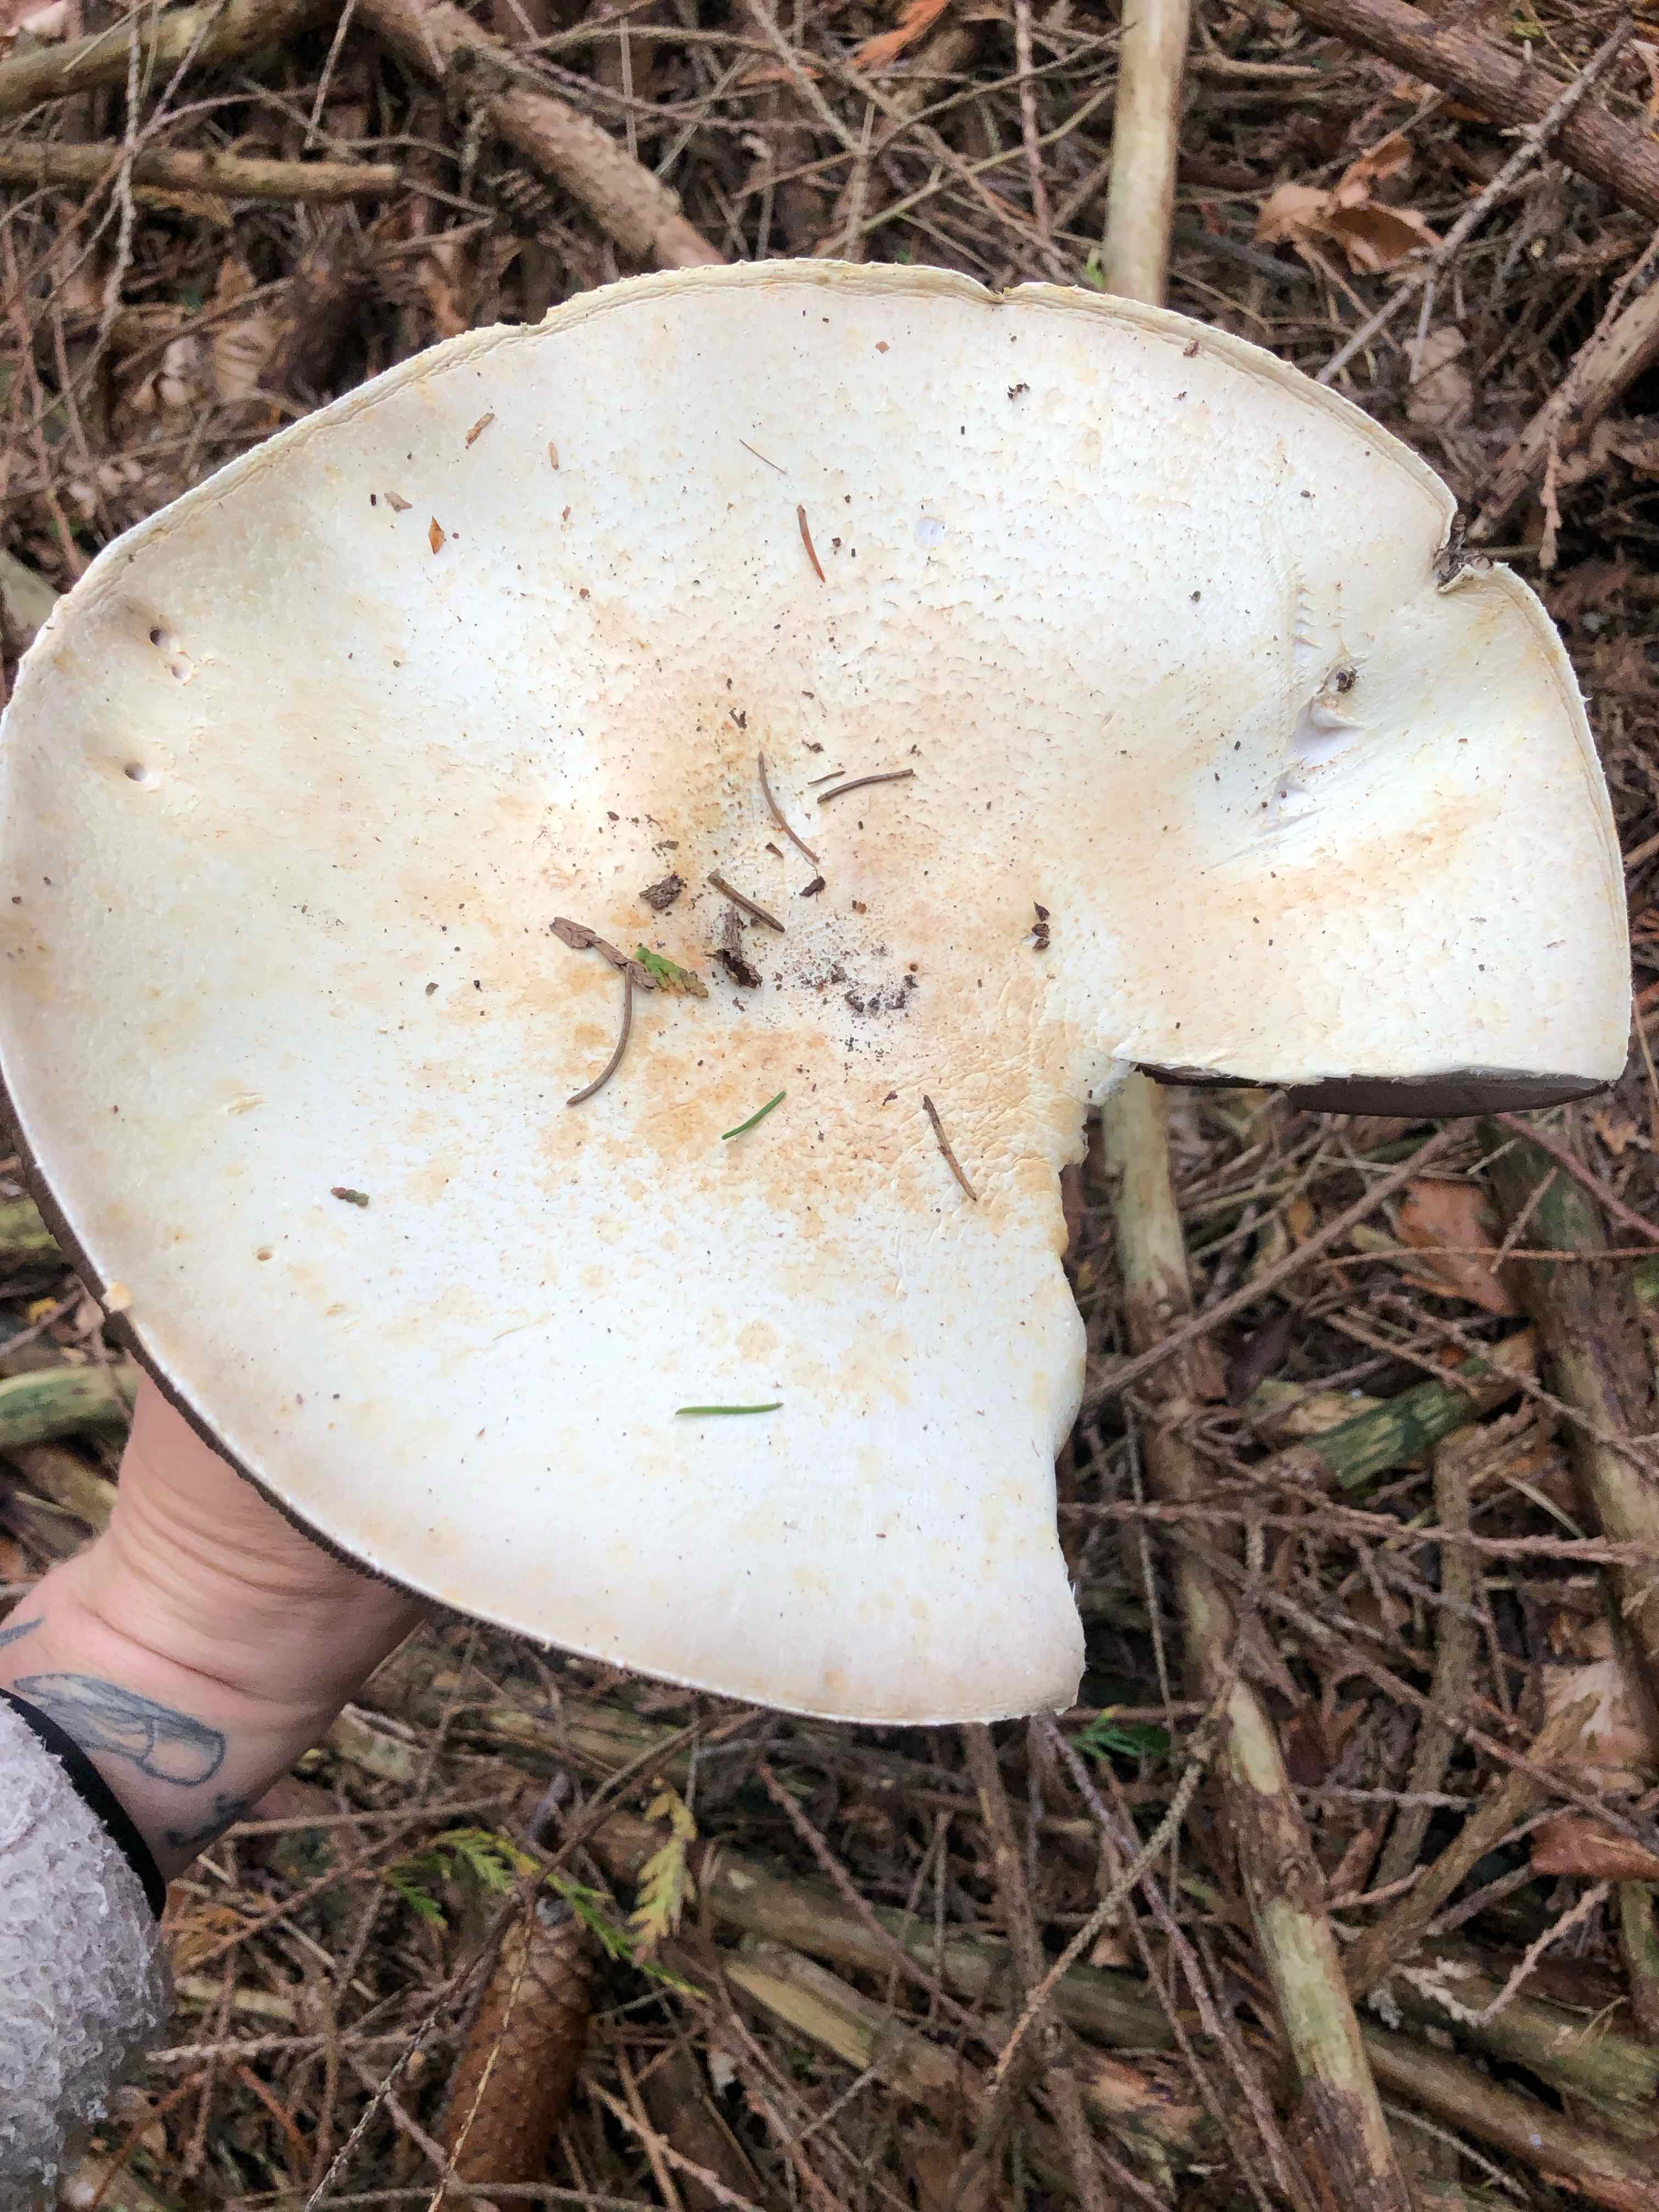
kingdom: Fungi
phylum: Basidiomycota
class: Agaricomycetes
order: Agaricales
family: Agaricaceae
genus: Agaricus
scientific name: Agaricus
